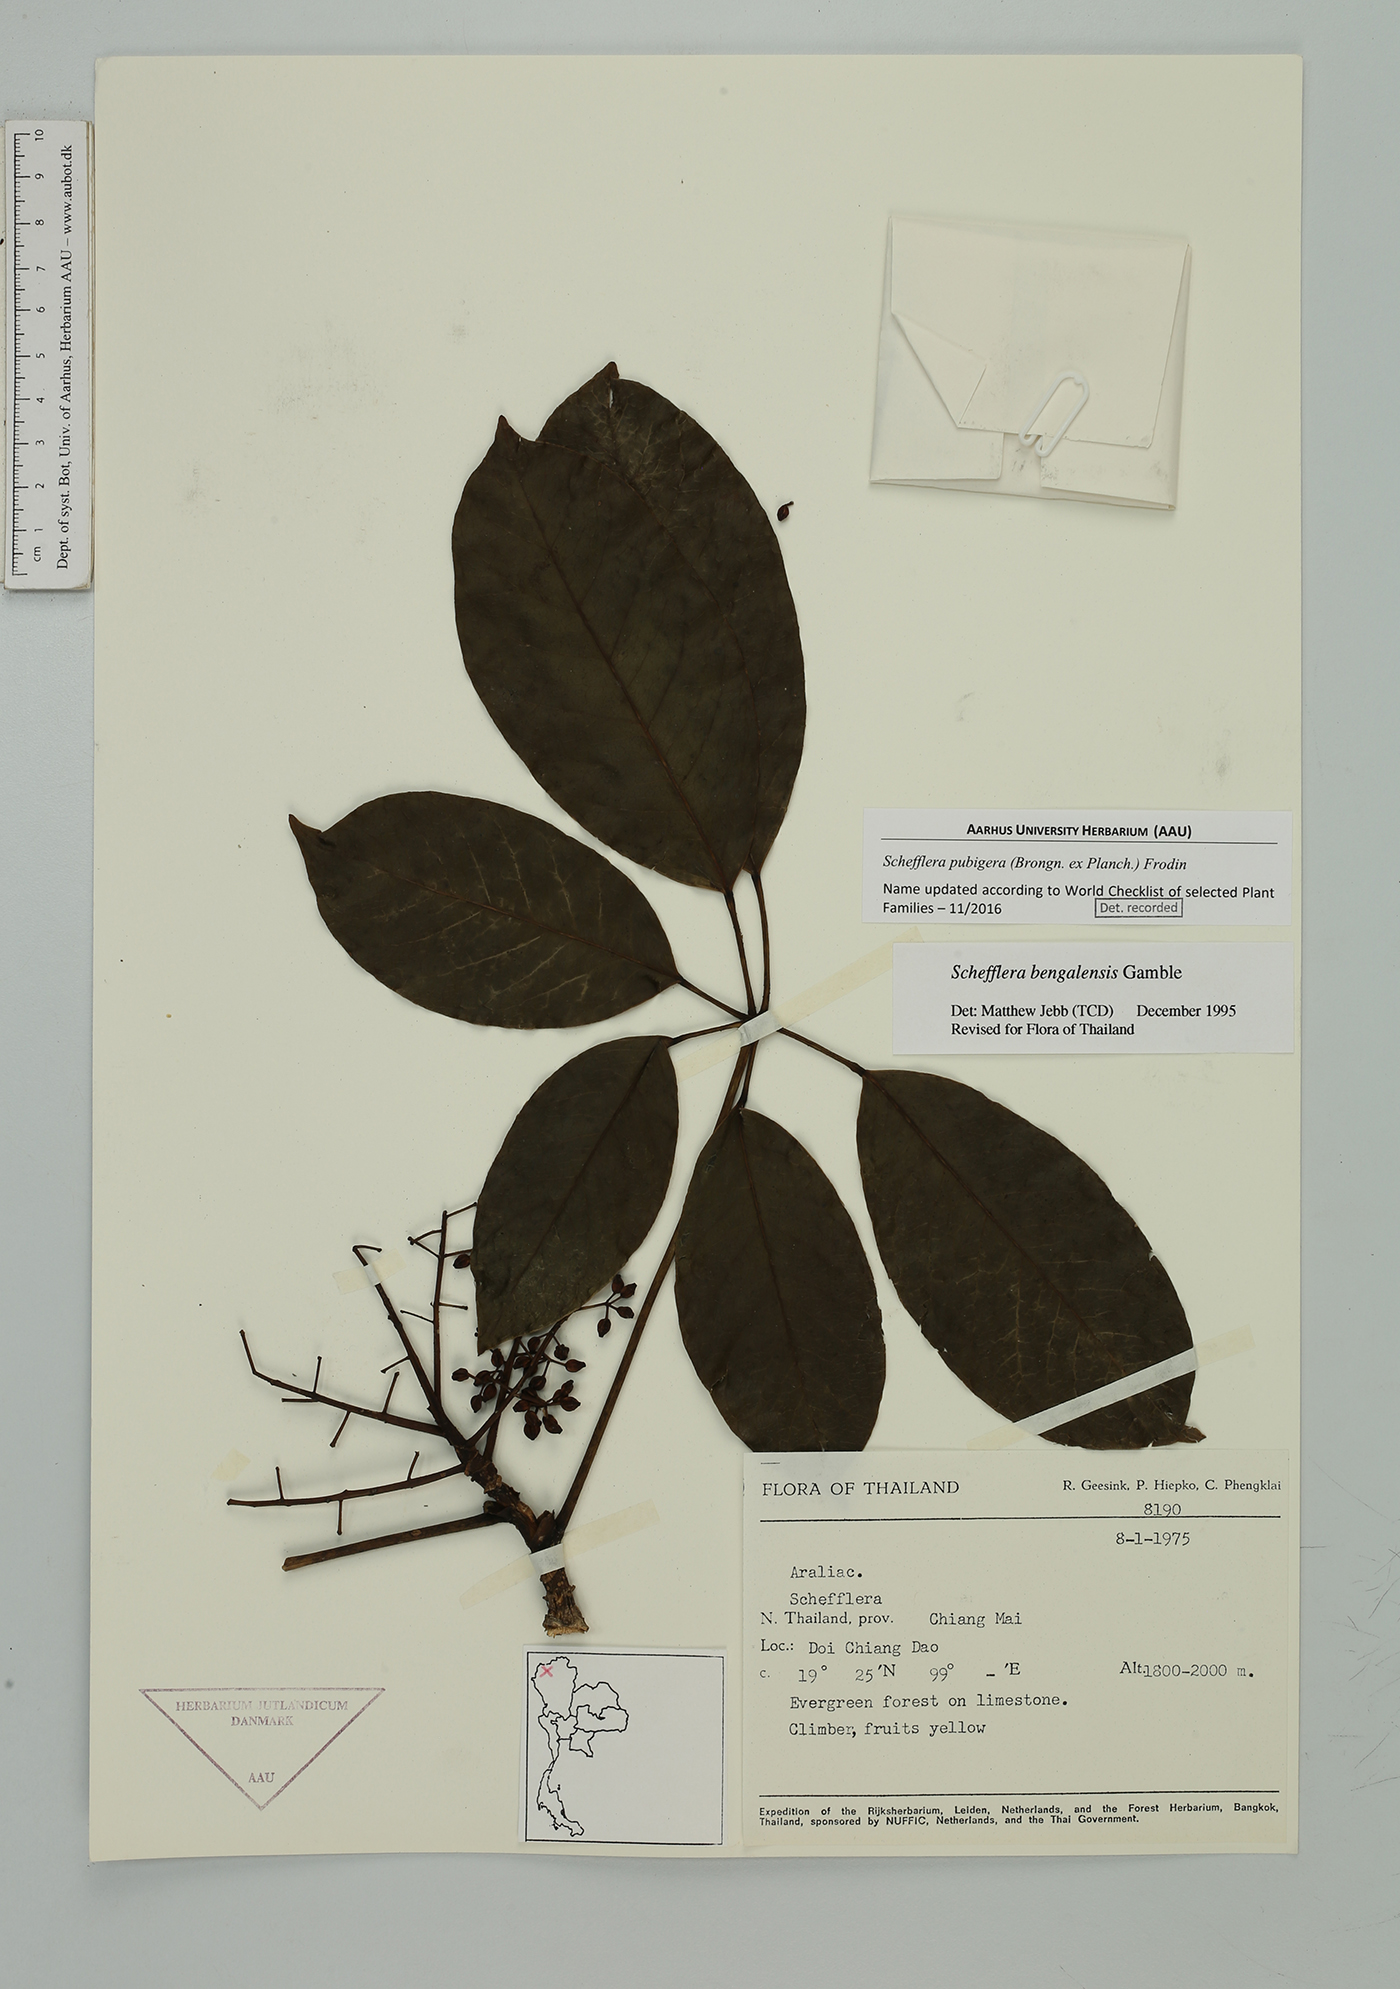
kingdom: Plantae
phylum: Tracheophyta
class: Magnoliopsida
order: Apiales
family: Araliaceae
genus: Heptapleurum
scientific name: Heptapleurum ellipticum
